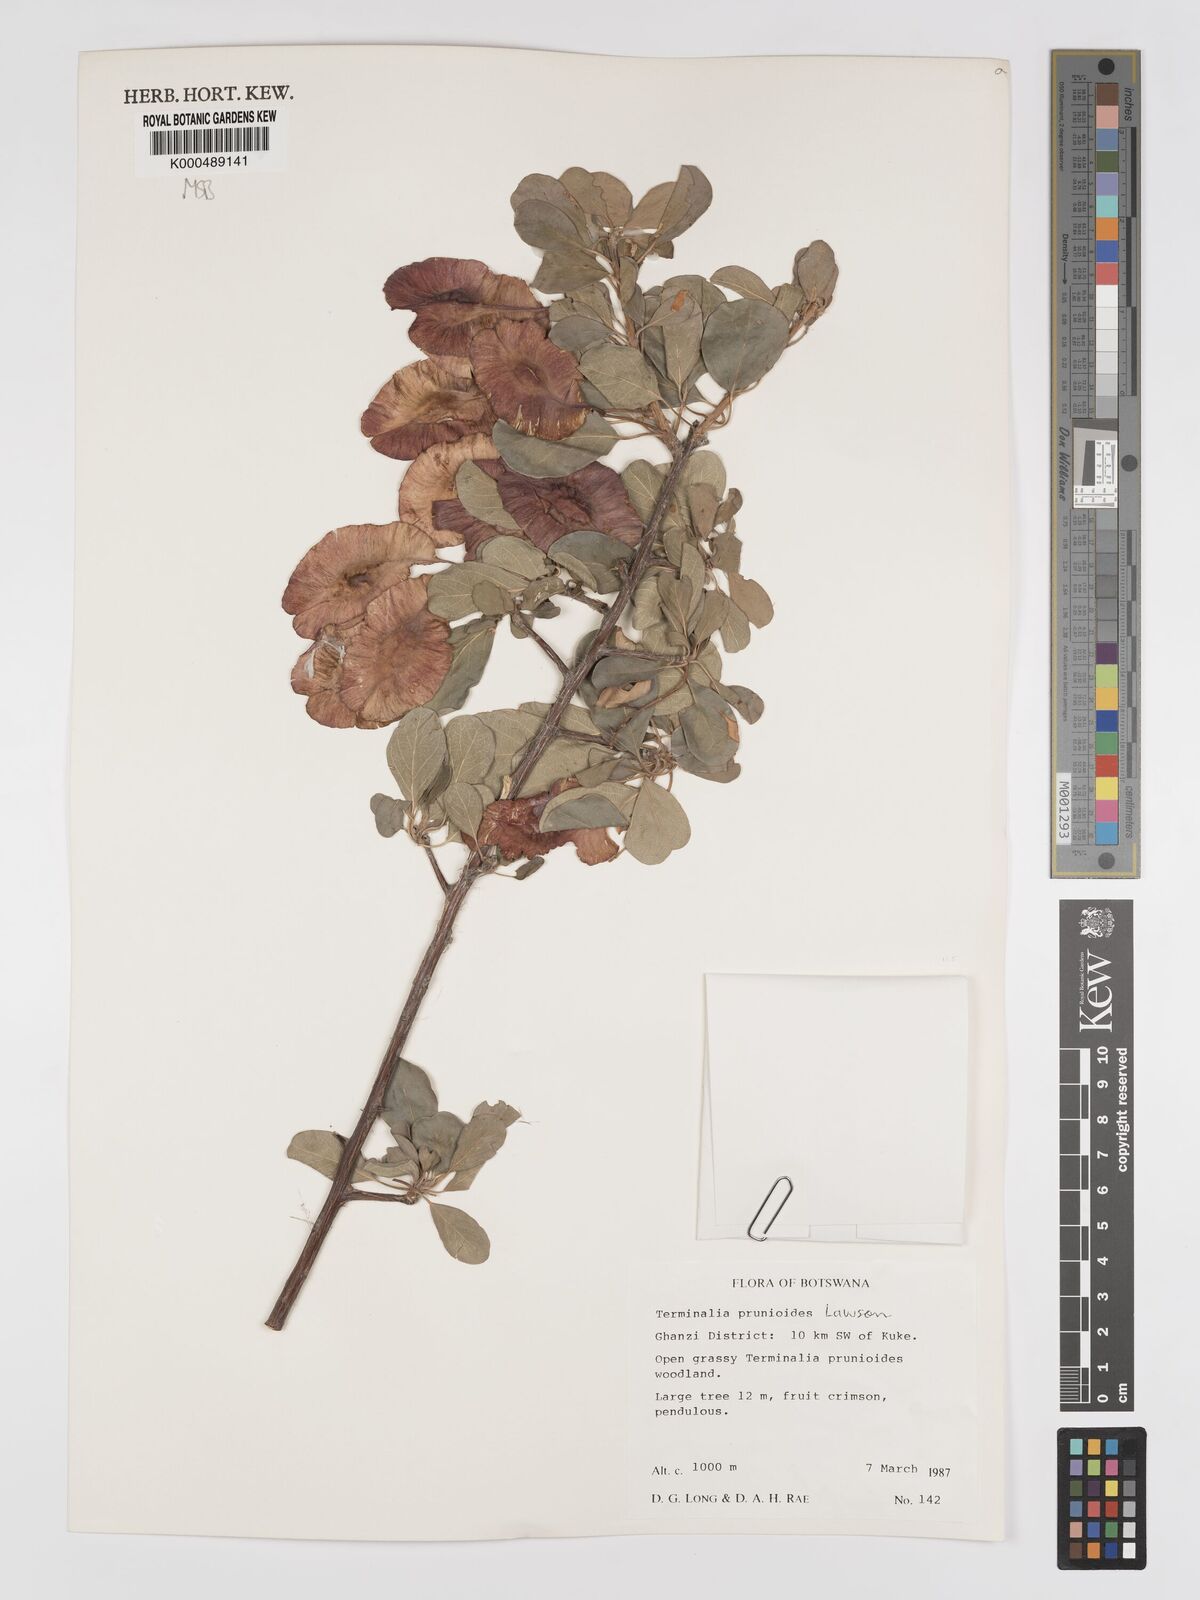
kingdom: Plantae
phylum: Tracheophyta
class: Magnoliopsida
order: Myrtales
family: Combretaceae
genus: Terminalia
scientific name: Terminalia prunioides
